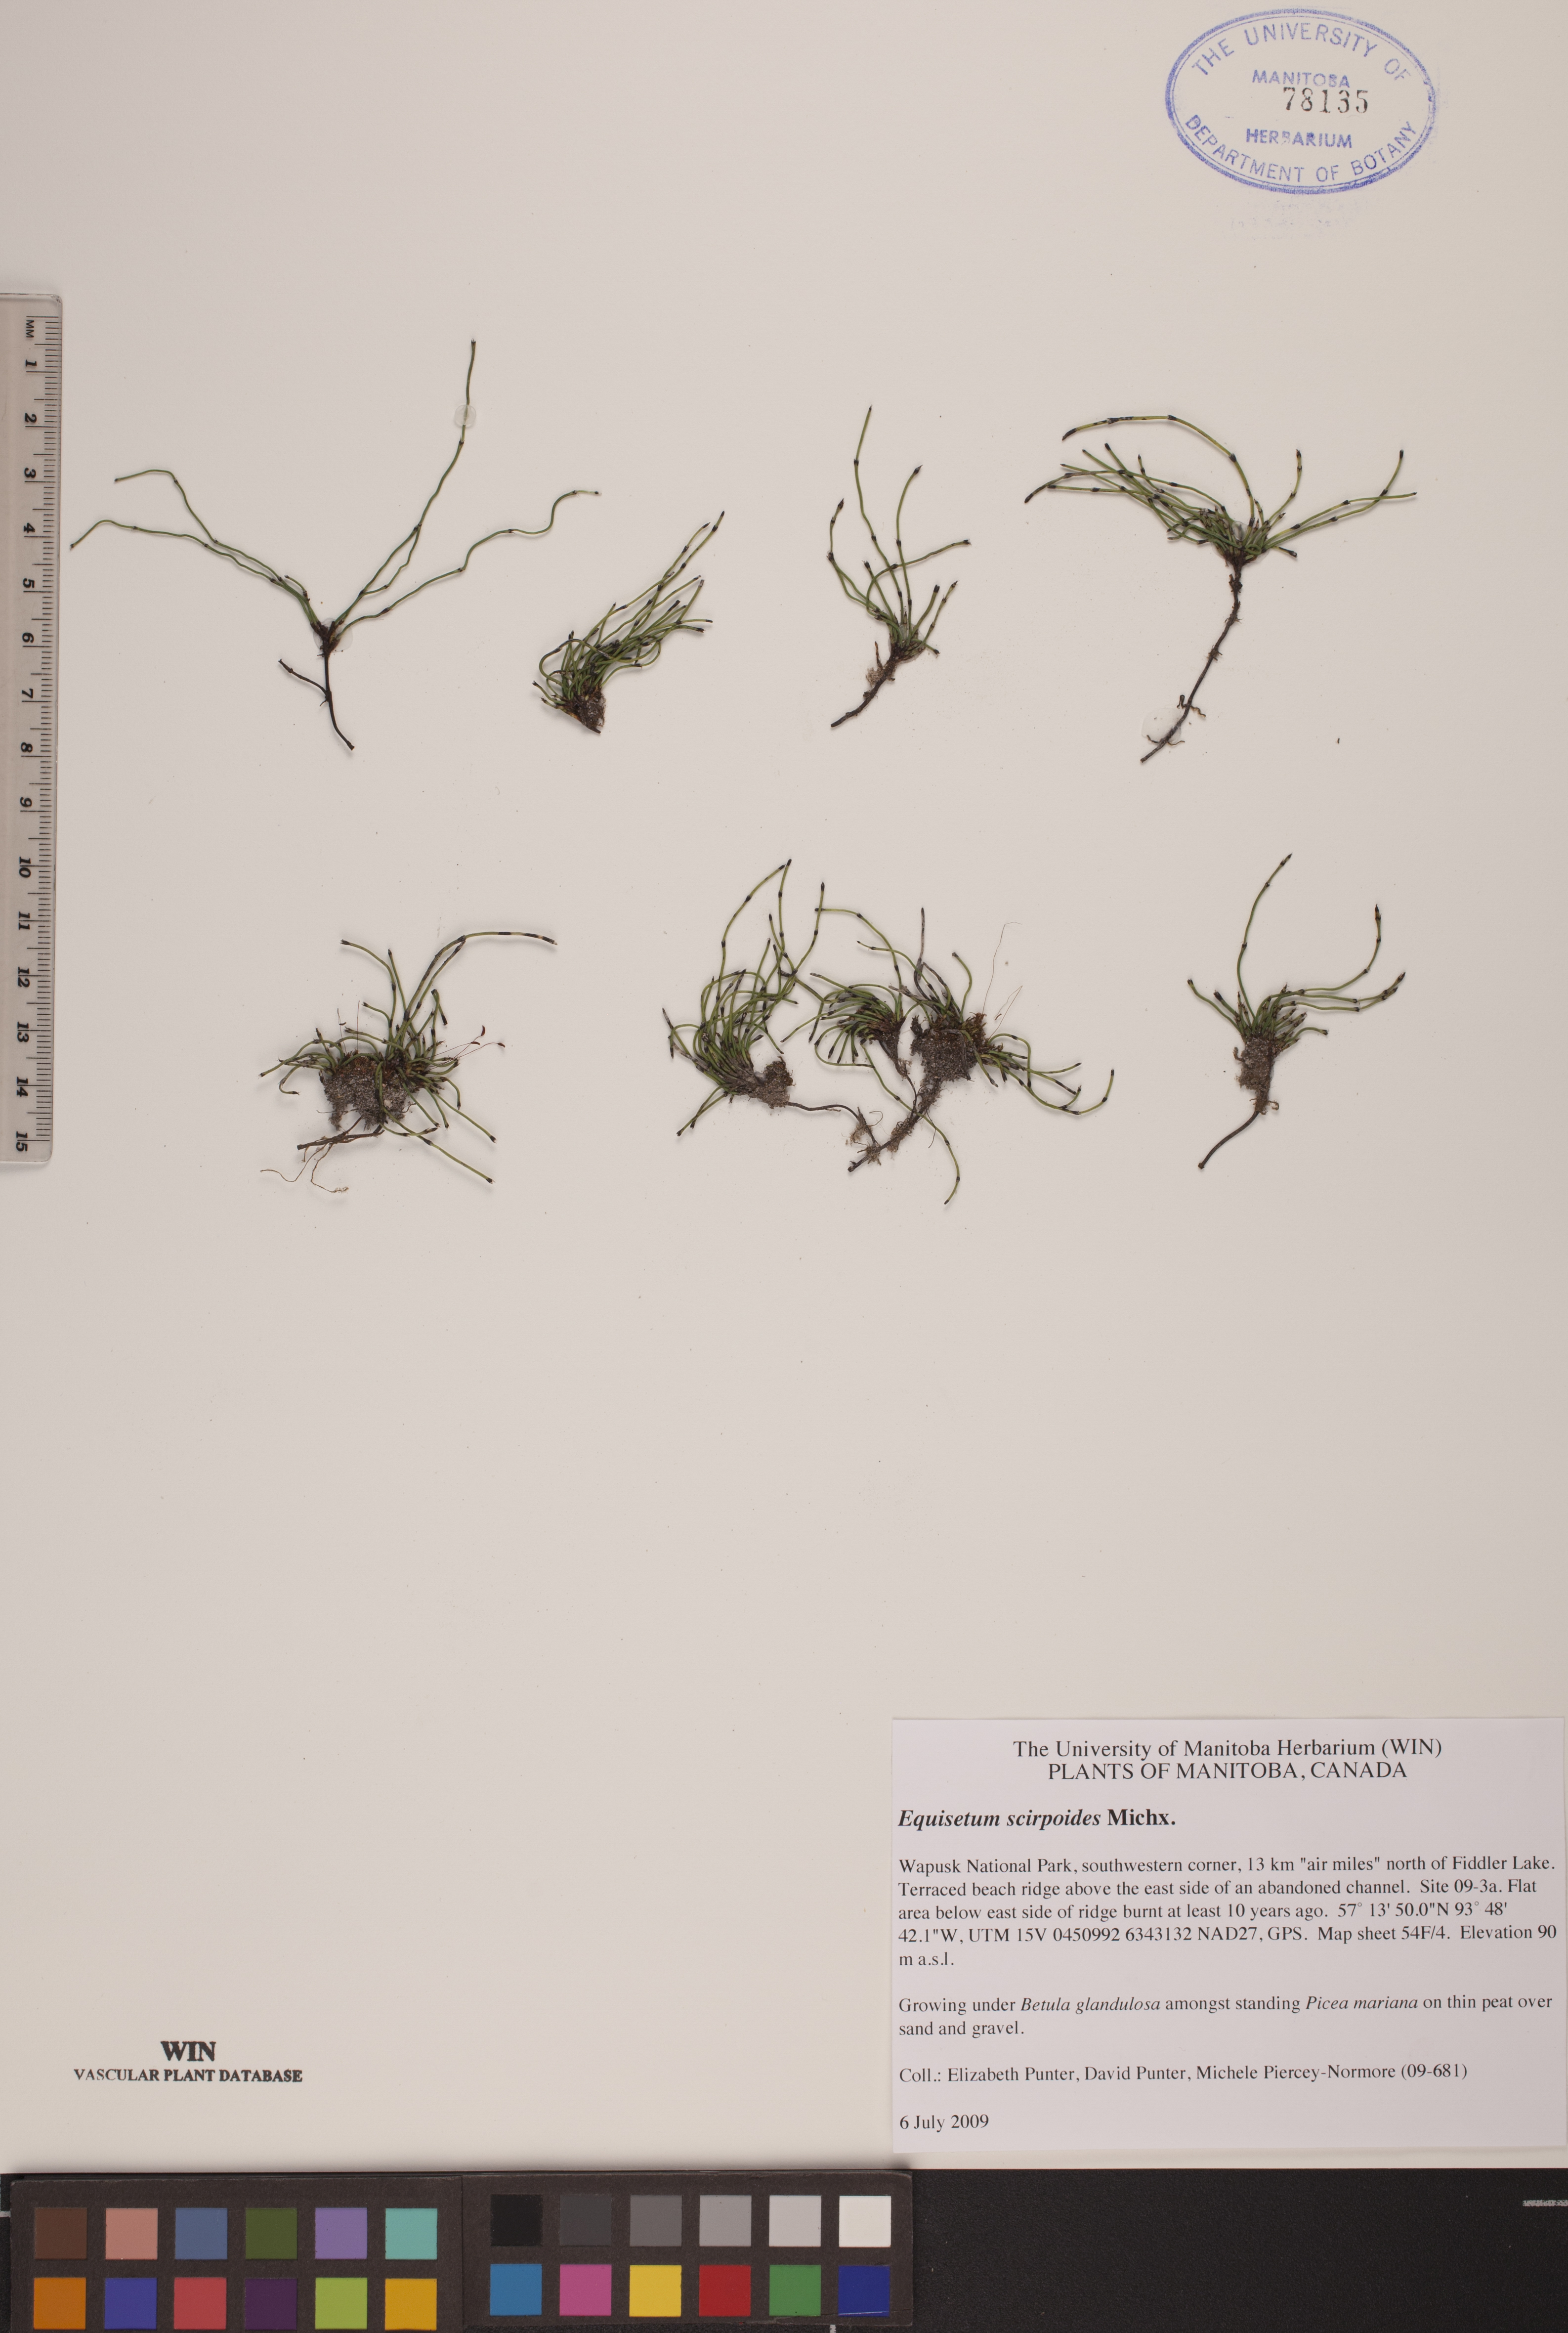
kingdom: Plantae
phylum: Tracheophyta
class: Polypodiopsida
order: Equisetales
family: Equisetaceae
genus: Equisetum
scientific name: Equisetum scirpoides
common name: Delicate horsetail
